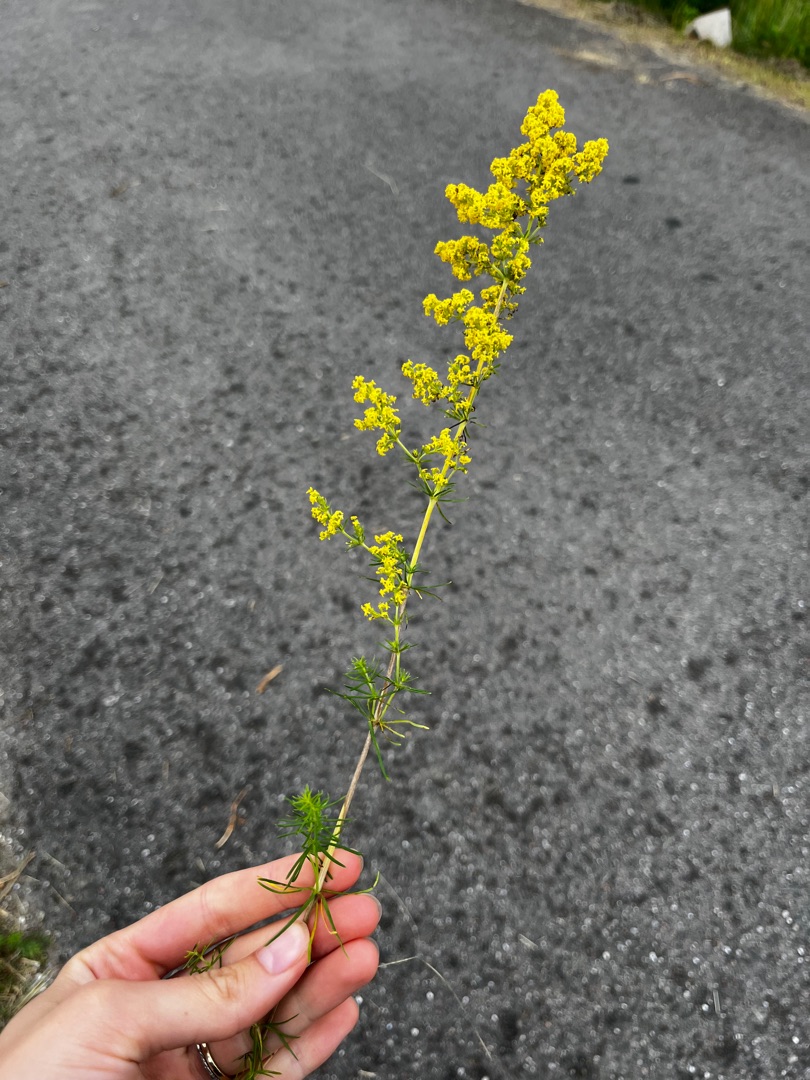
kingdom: Plantae
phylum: Tracheophyta
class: Magnoliopsida
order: Gentianales
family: Rubiaceae
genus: Galium
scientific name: Galium verum
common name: Gul snerre
